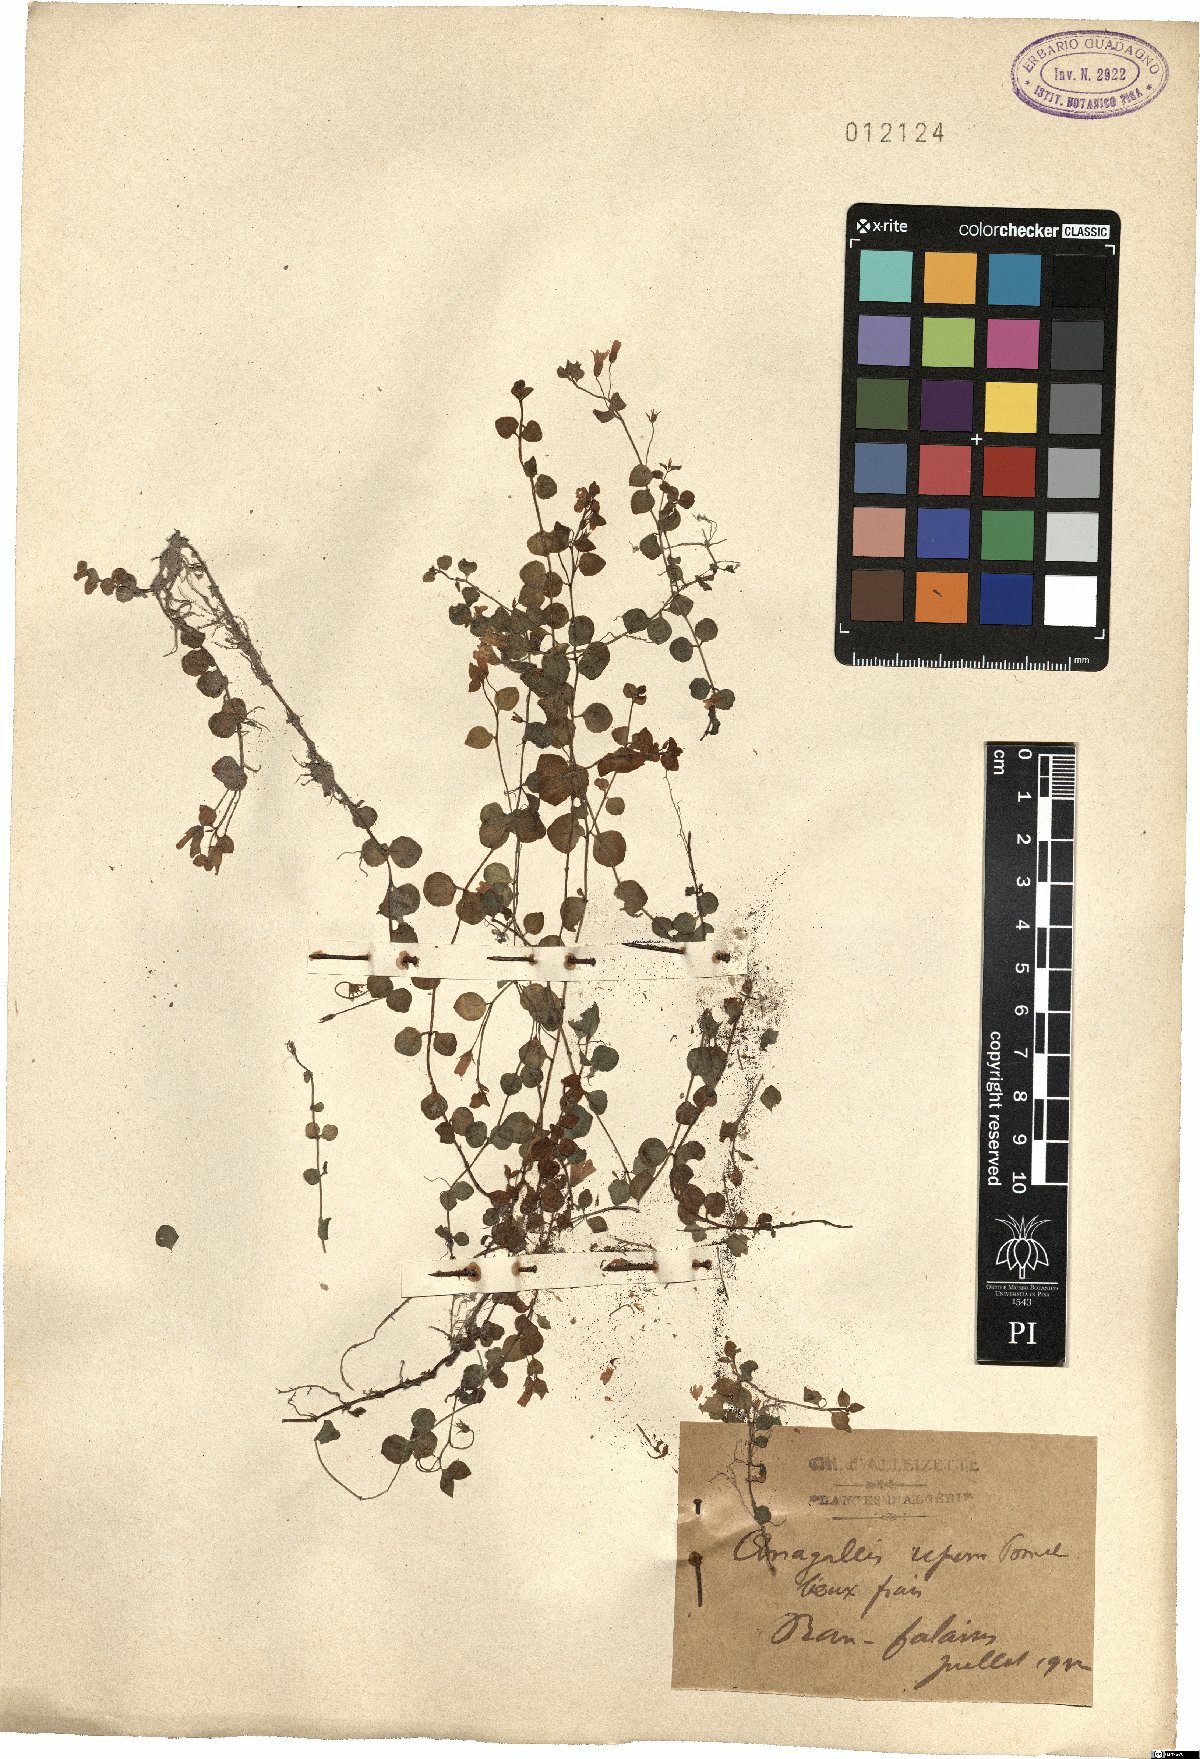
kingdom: Plantae
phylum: Tracheophyta
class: Magnoliopsida
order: Ericales
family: Primulaceae
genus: Lysimachia
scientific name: Lysimachia tenella
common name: European bog pimpernel
